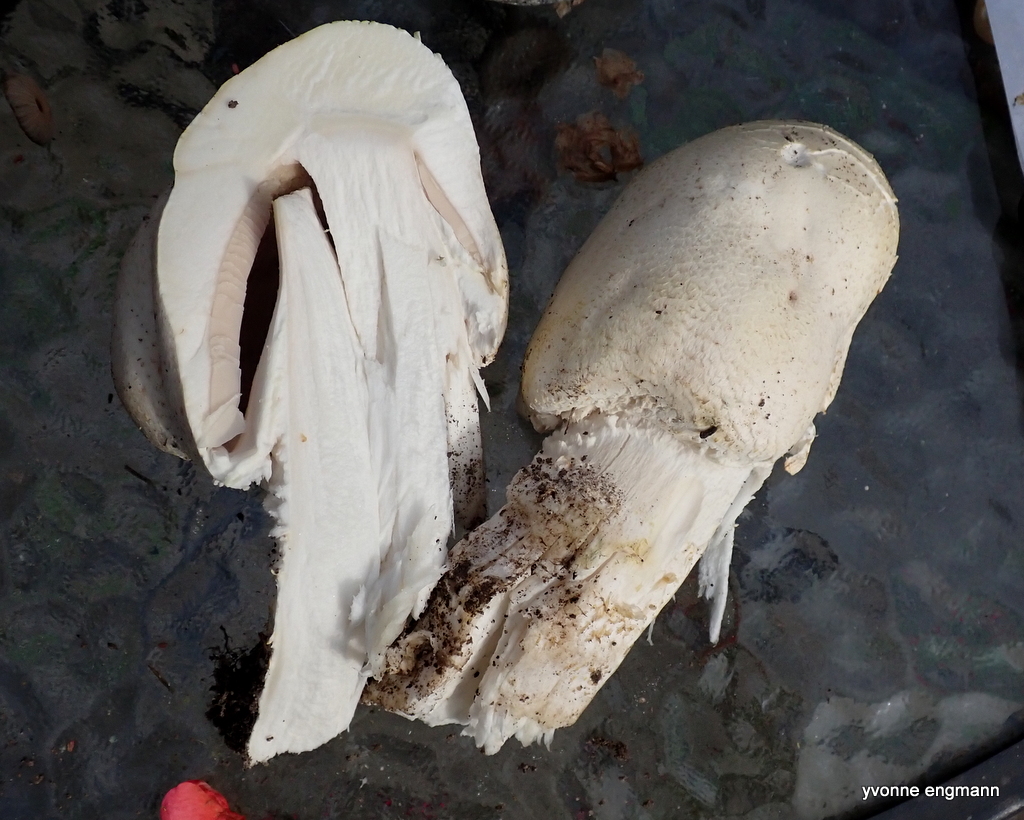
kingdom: Fungi
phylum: Basidiomycota
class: Agaricomycetes
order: Agaricales
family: Agaricaceae
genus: Agaricus
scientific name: Agaricus
